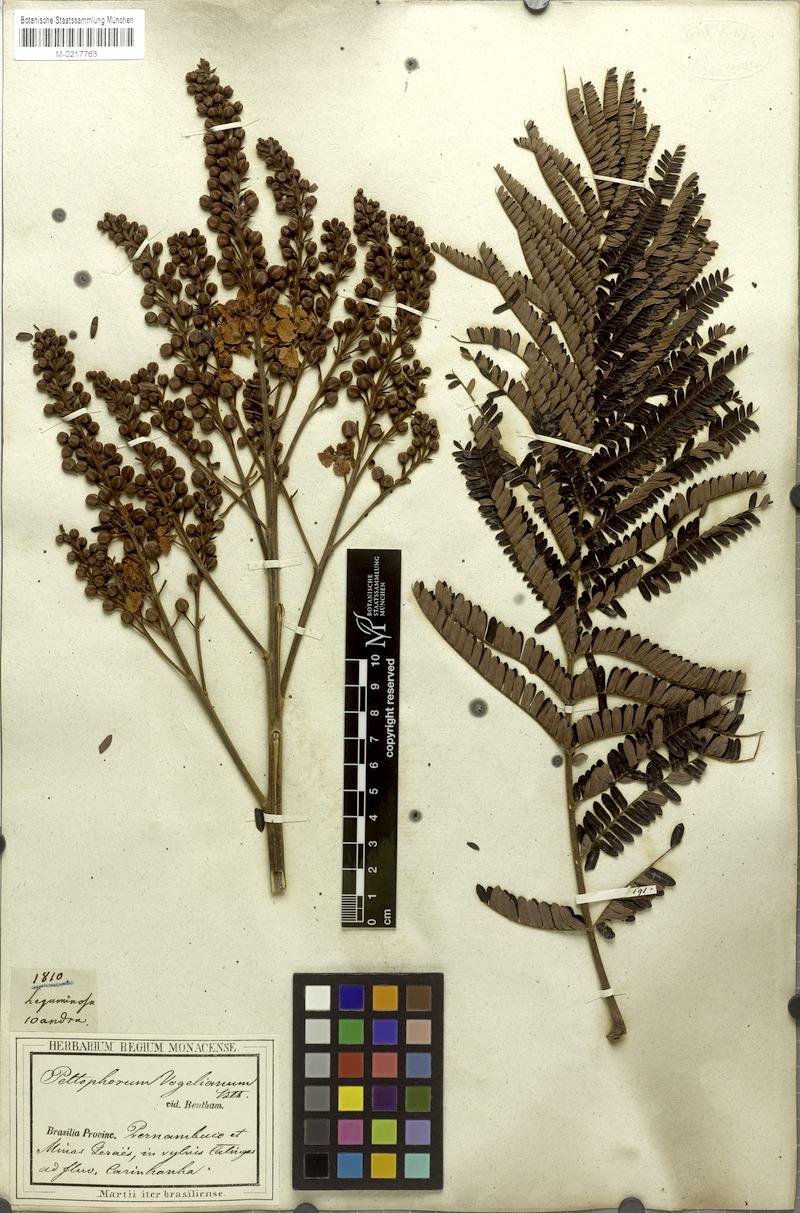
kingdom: Plantae
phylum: Tracheophyta
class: Magnoliopsida
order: Fabales
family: Fabaceae
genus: Peltophorum
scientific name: Peltophorum dubium
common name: Horsebush
